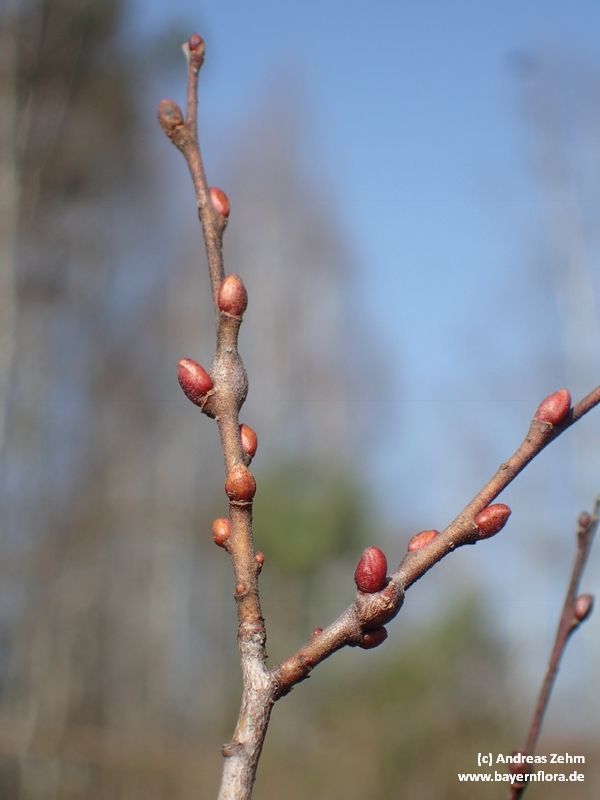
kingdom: Plantae
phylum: Tracheophyta
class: Magnoliopsida
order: Malpighiales
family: Salicaceae
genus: Salix
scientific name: Salix myrtilloides
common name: Myrtle-leaved willow
